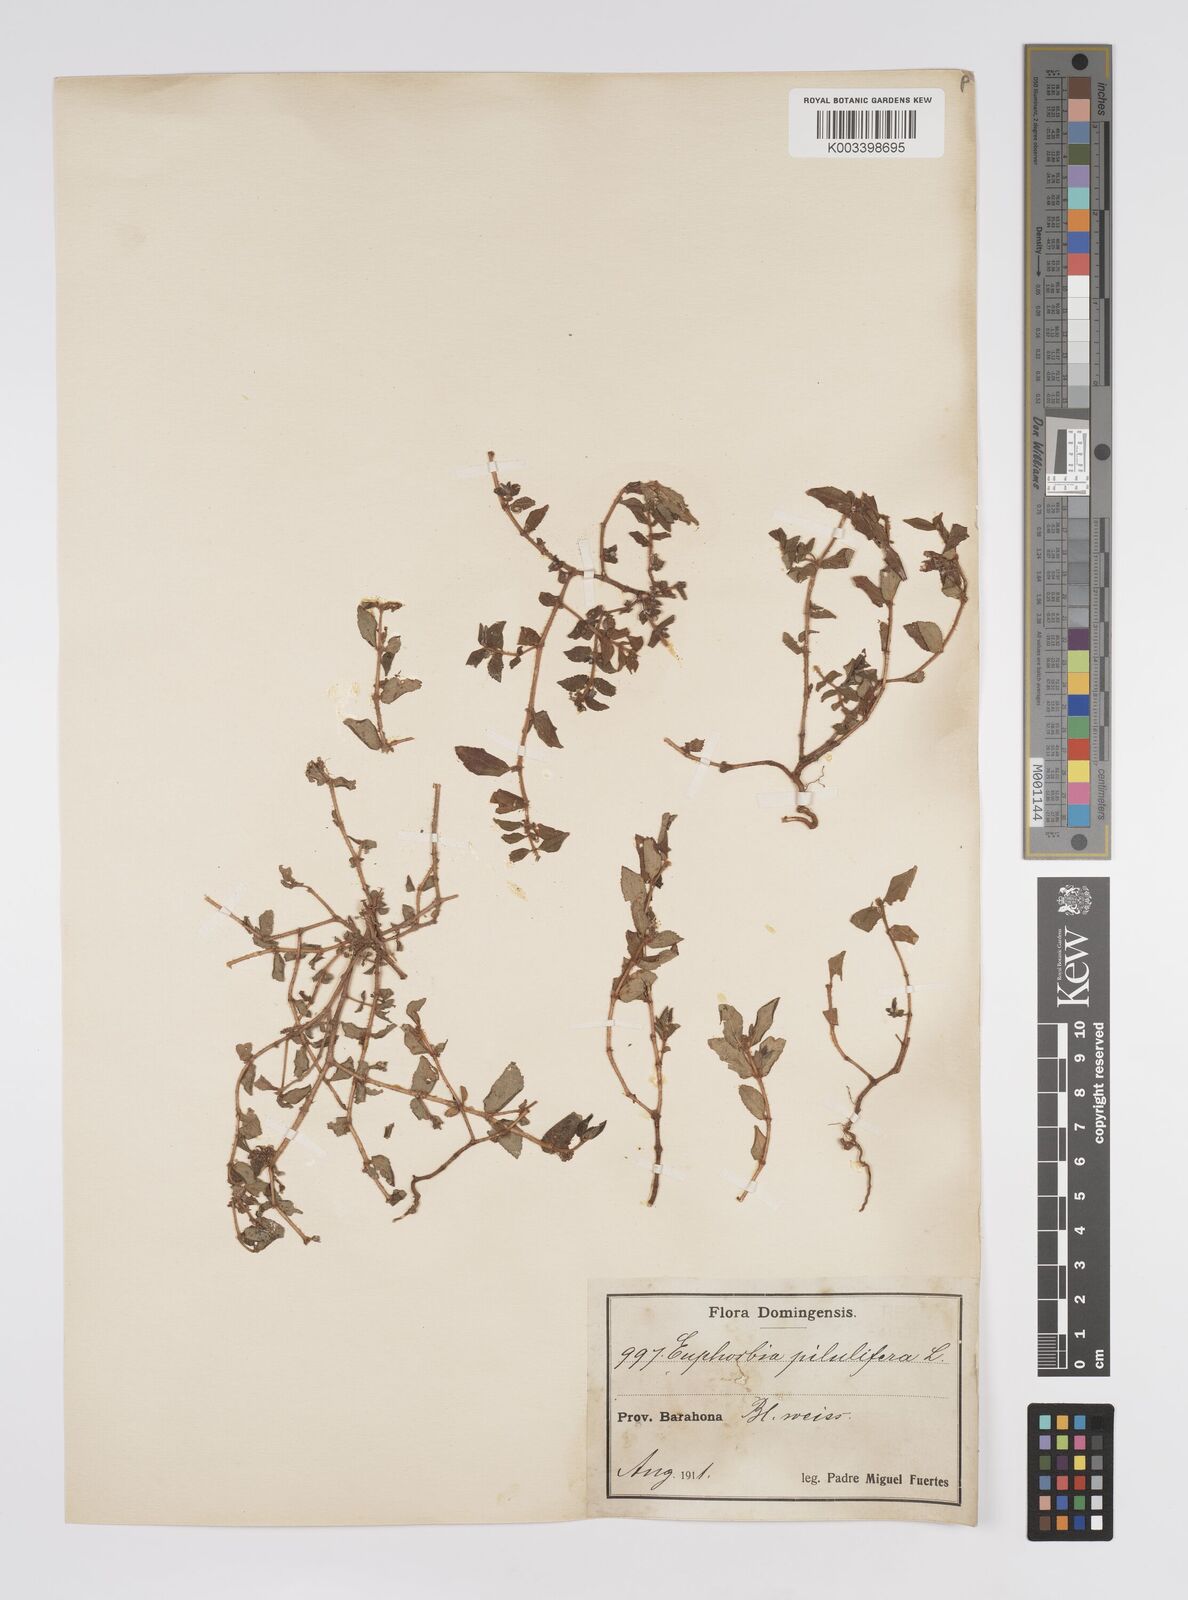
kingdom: Plantae
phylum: Tracheophyta
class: Magnoliopsida
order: Malpighiales
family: Euphorbiaceae
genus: Euphorbia
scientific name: Euphorbia hirta
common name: Pillpod sandmat
